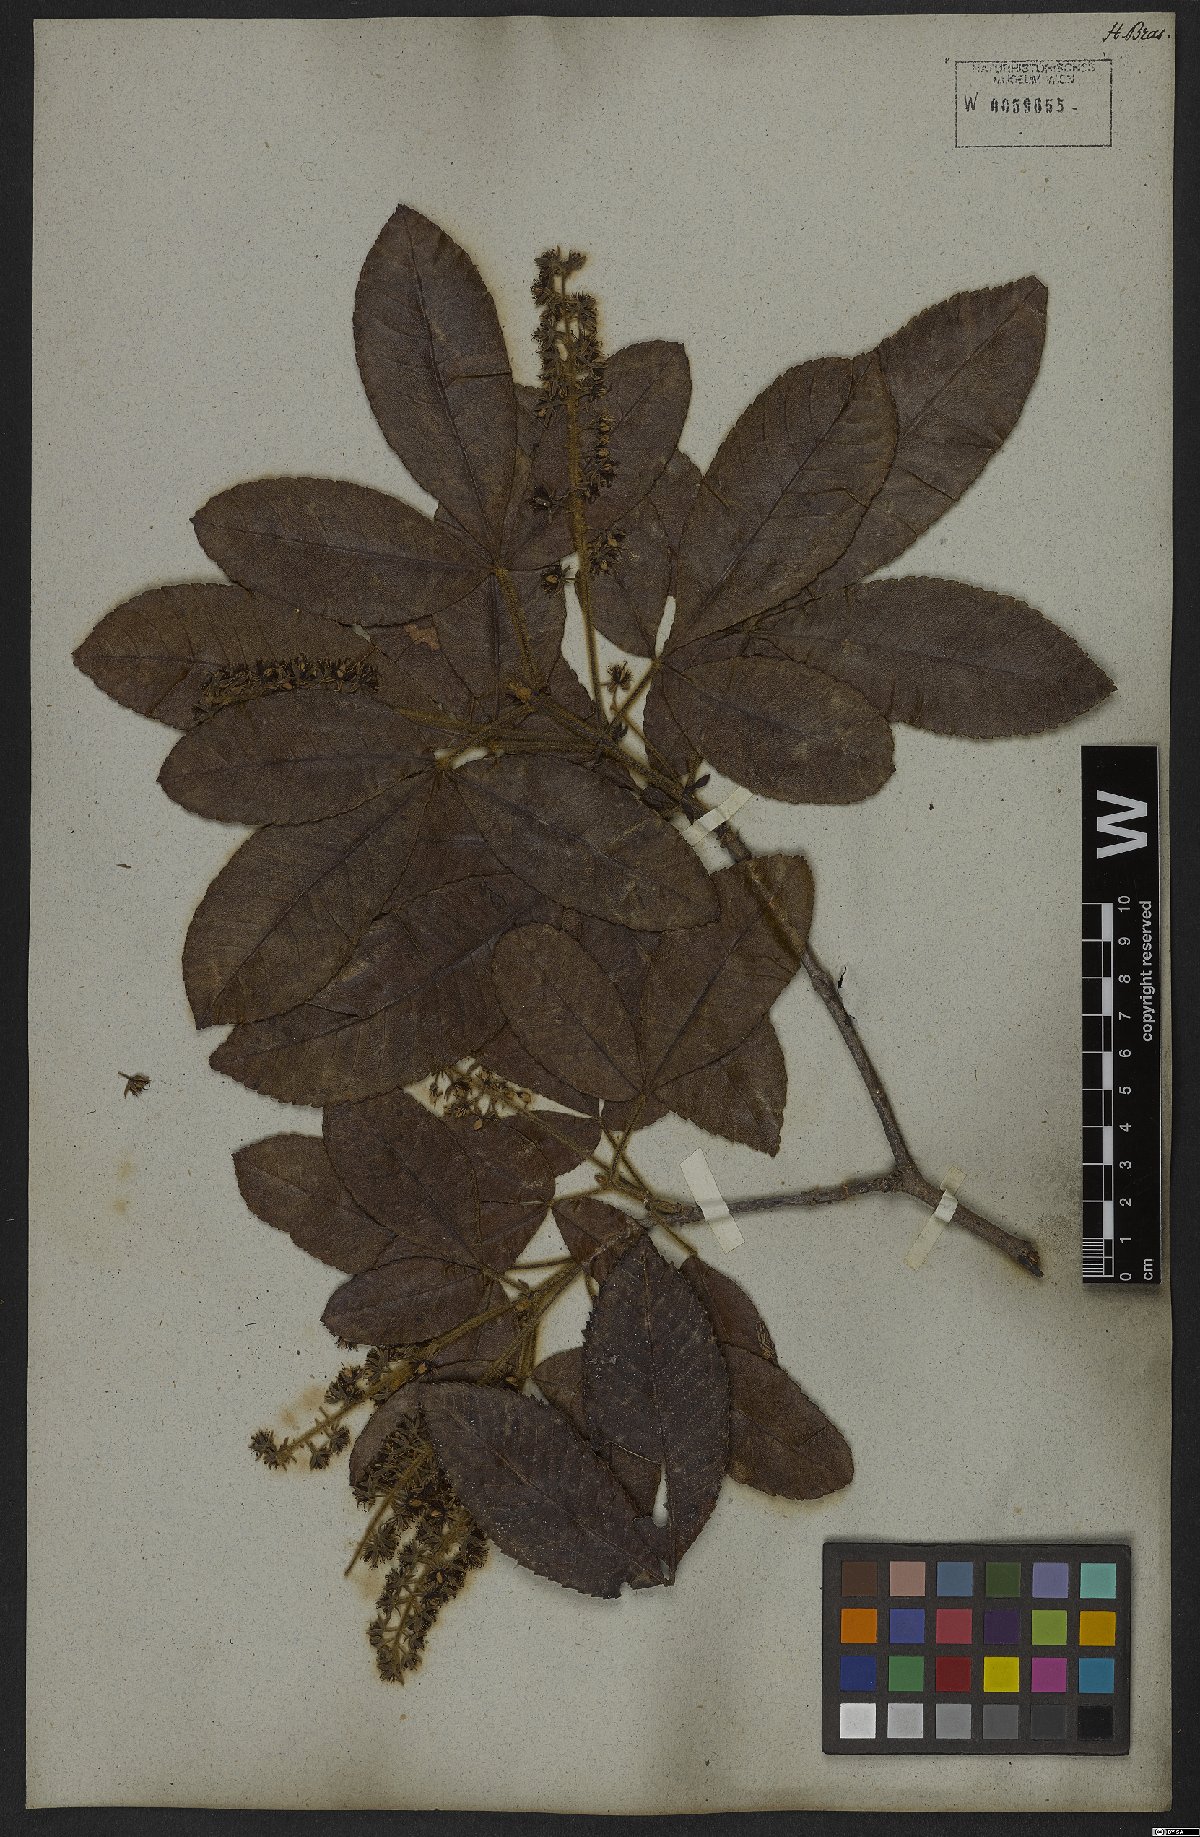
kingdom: Plantae
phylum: Tracheophyta
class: Magnoliopsida
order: Oxalidales
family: Cunoniaceae
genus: Lamanonia
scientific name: Lamanonia ternata
